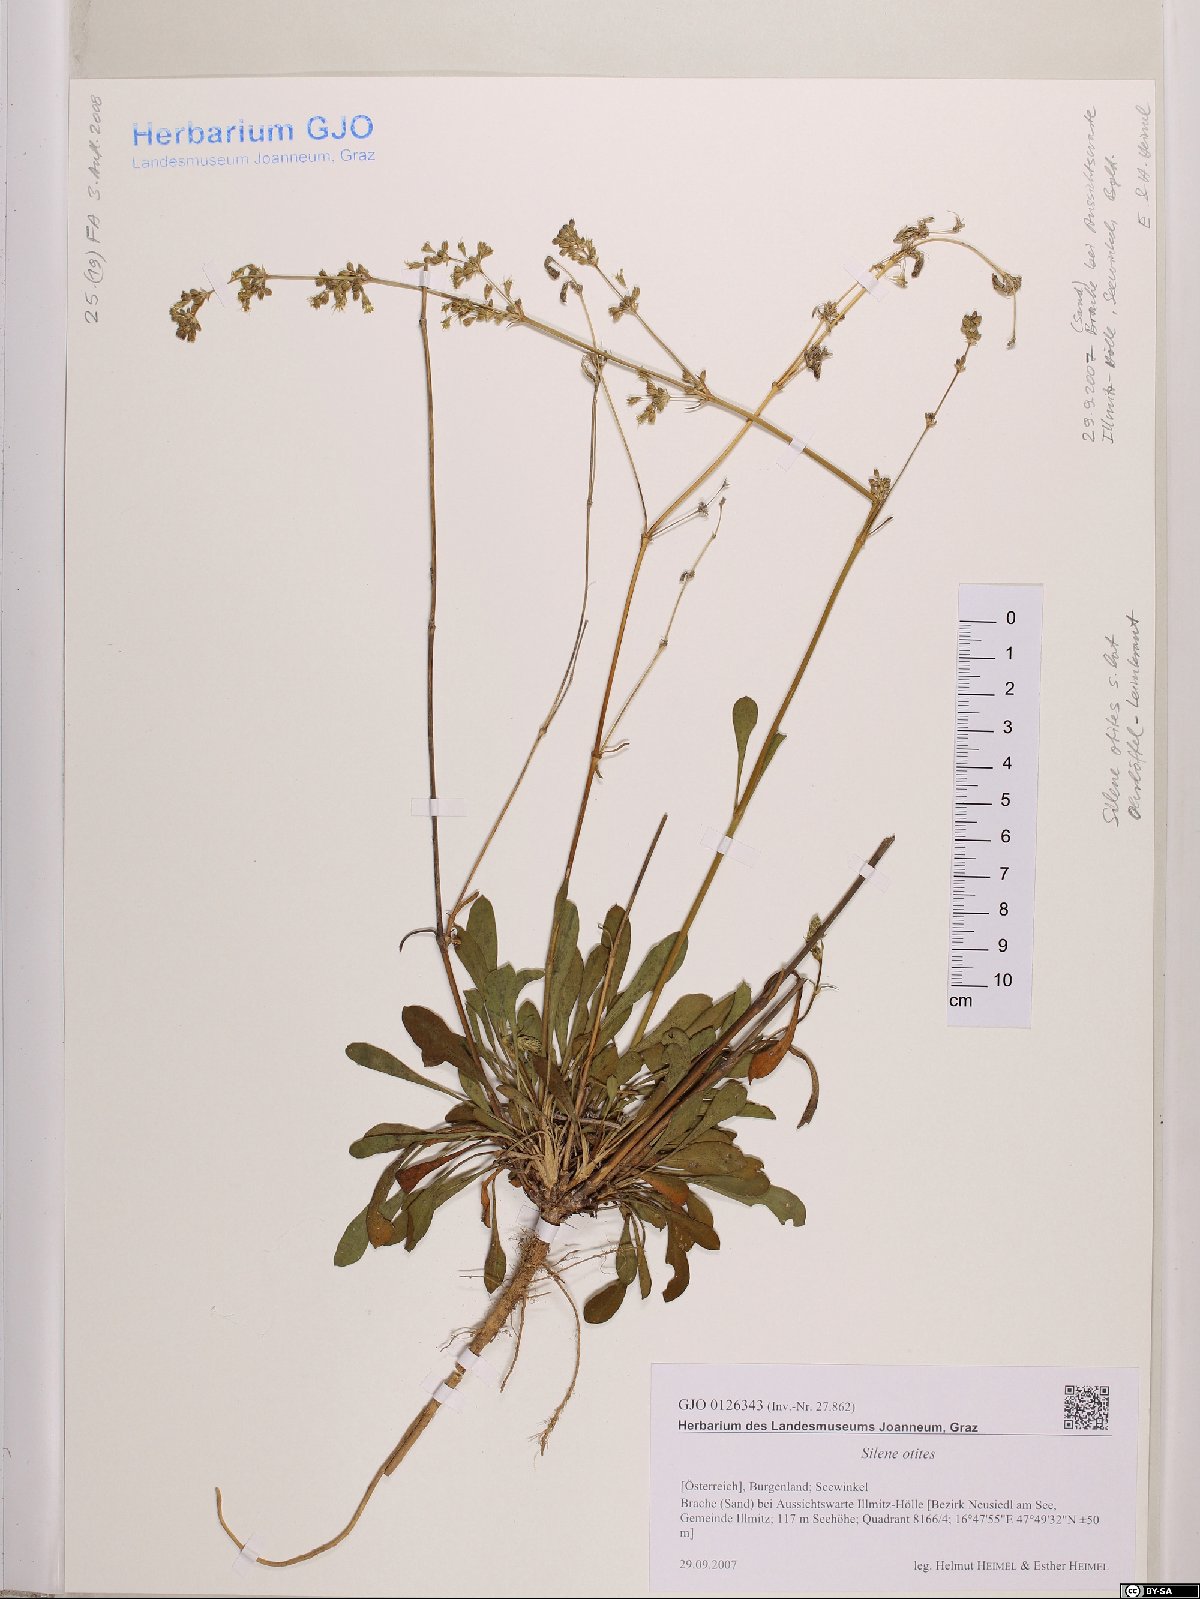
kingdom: Plantae
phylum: Tracheophyta
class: Magnoliopsida
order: Caryophyllales
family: Caryophyllaceae
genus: Silene
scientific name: Silene otites
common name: Spanish catchfly
